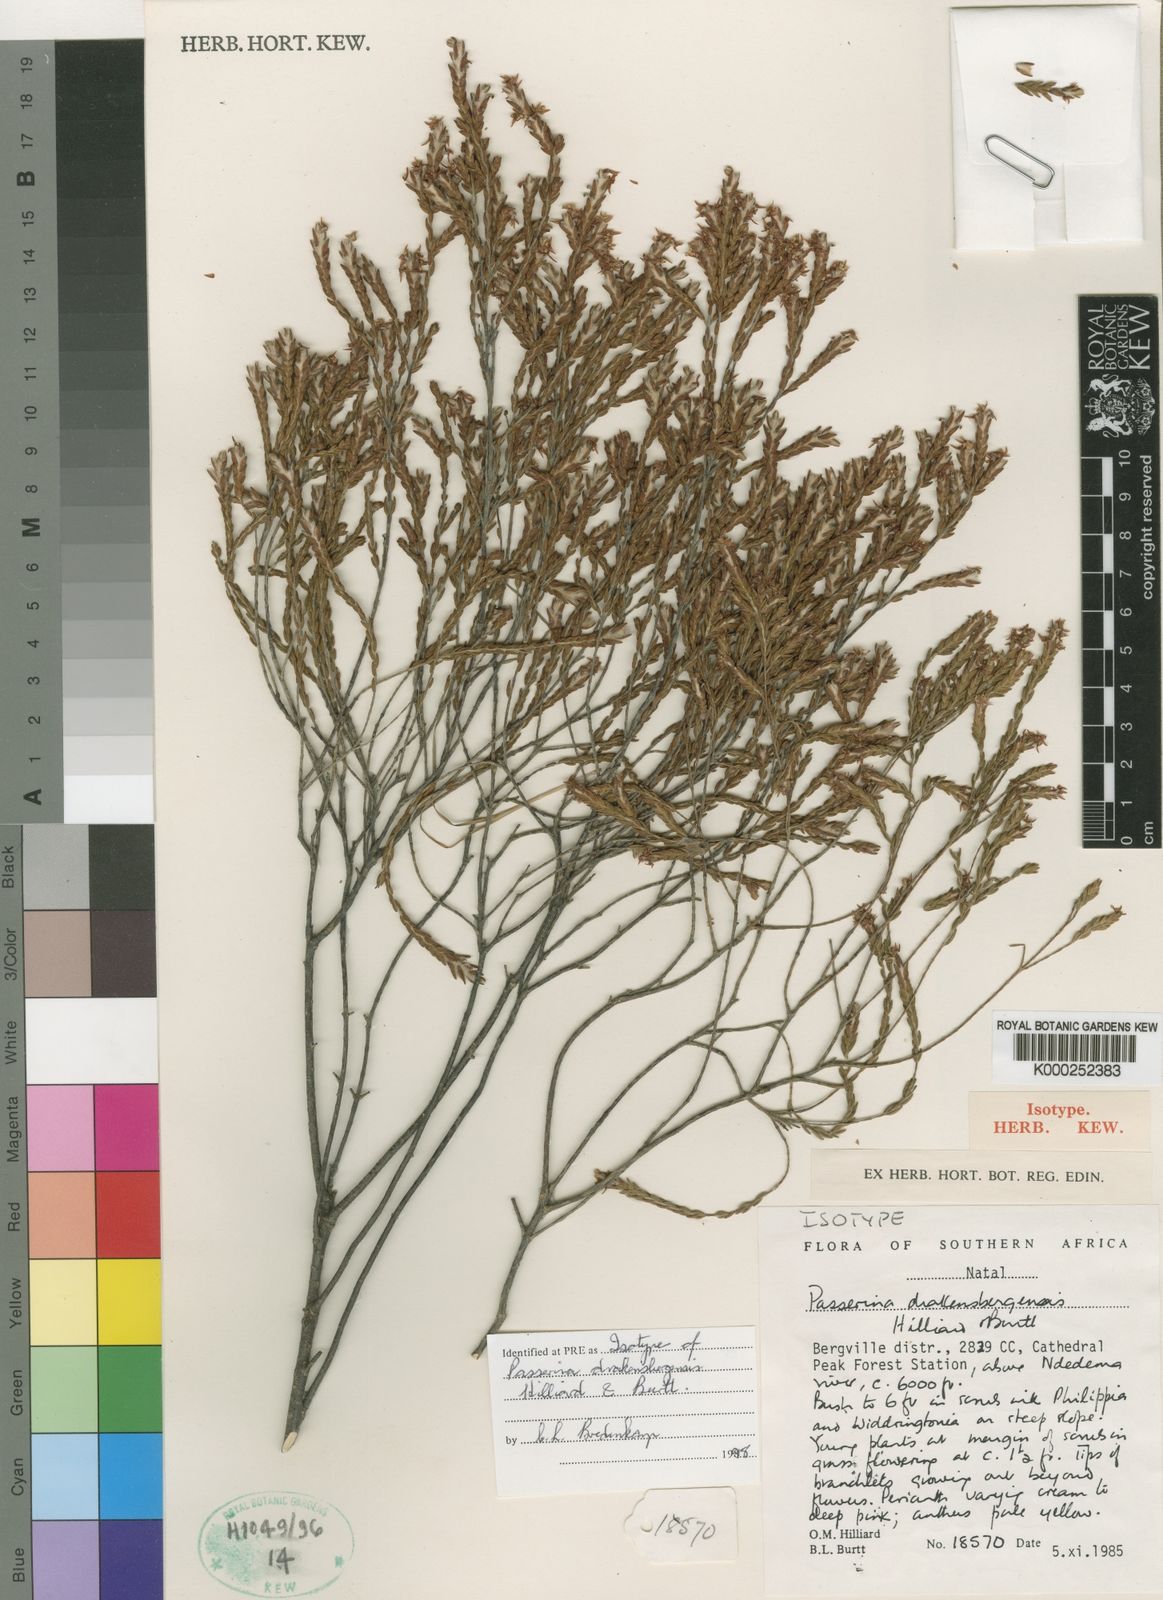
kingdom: Plantae
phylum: Tracheophyta
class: Magnoliopsida
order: Malvales
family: Thymelaeaceae
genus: Passerina
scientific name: Passerina drakensbergensis
